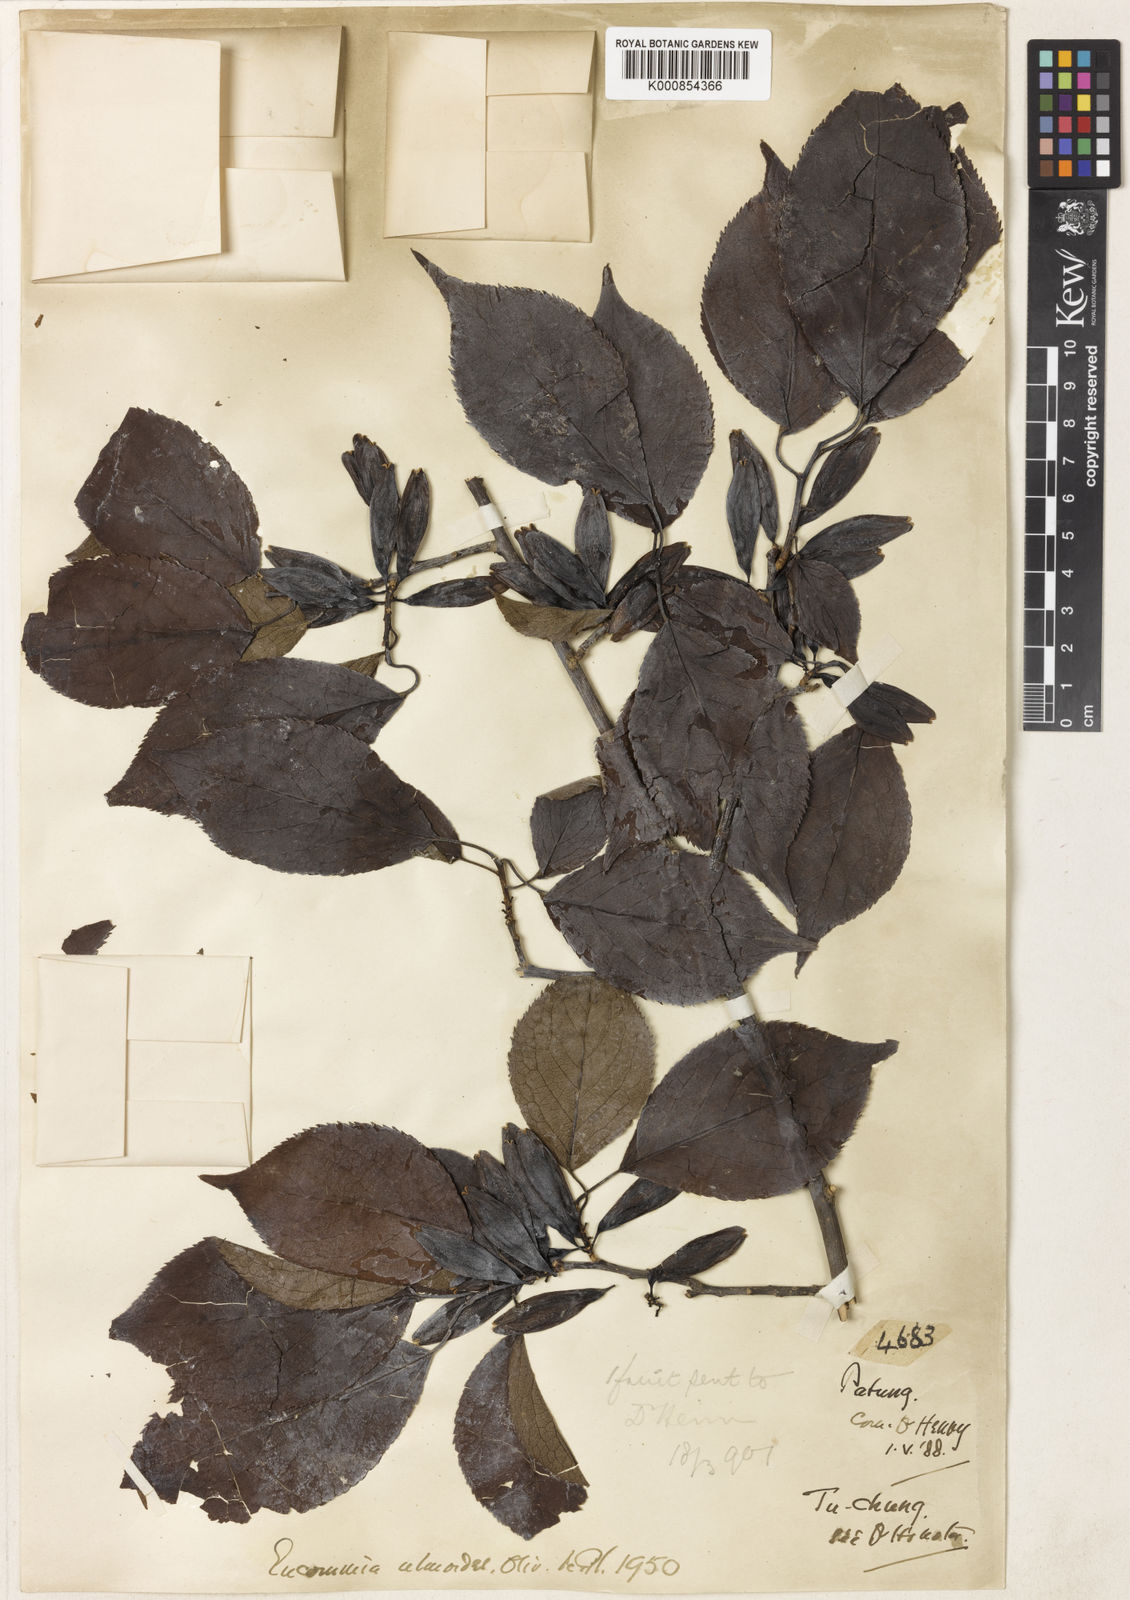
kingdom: Plantae
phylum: Tracheophyta
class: Magnoliopsida
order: Garryales
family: Eucommiaceae
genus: Eucommia
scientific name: Eucommia ulmoides
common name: Woody plant
